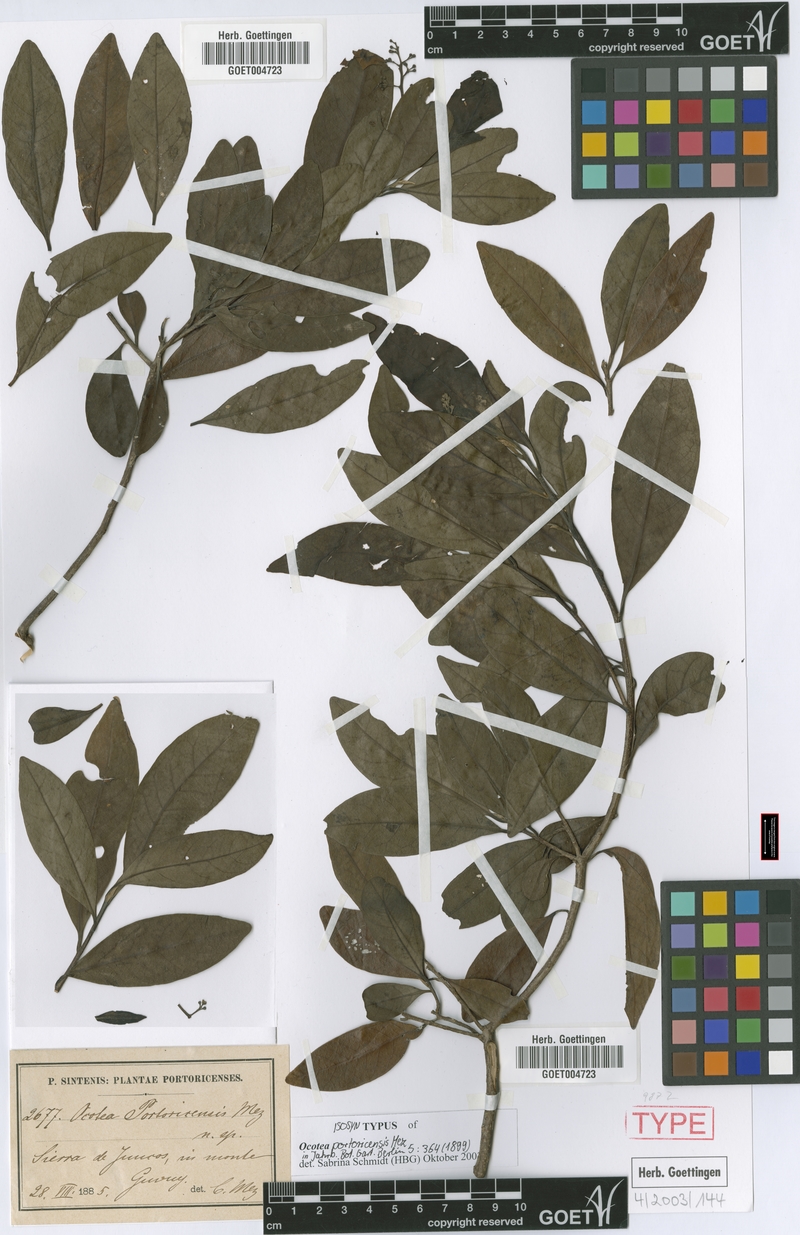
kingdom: Plantae
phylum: Tracheophyta
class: Magnoliopsida
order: Laurales
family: Lauraceae
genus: Ocotea
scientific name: Ocotea portoricensis
